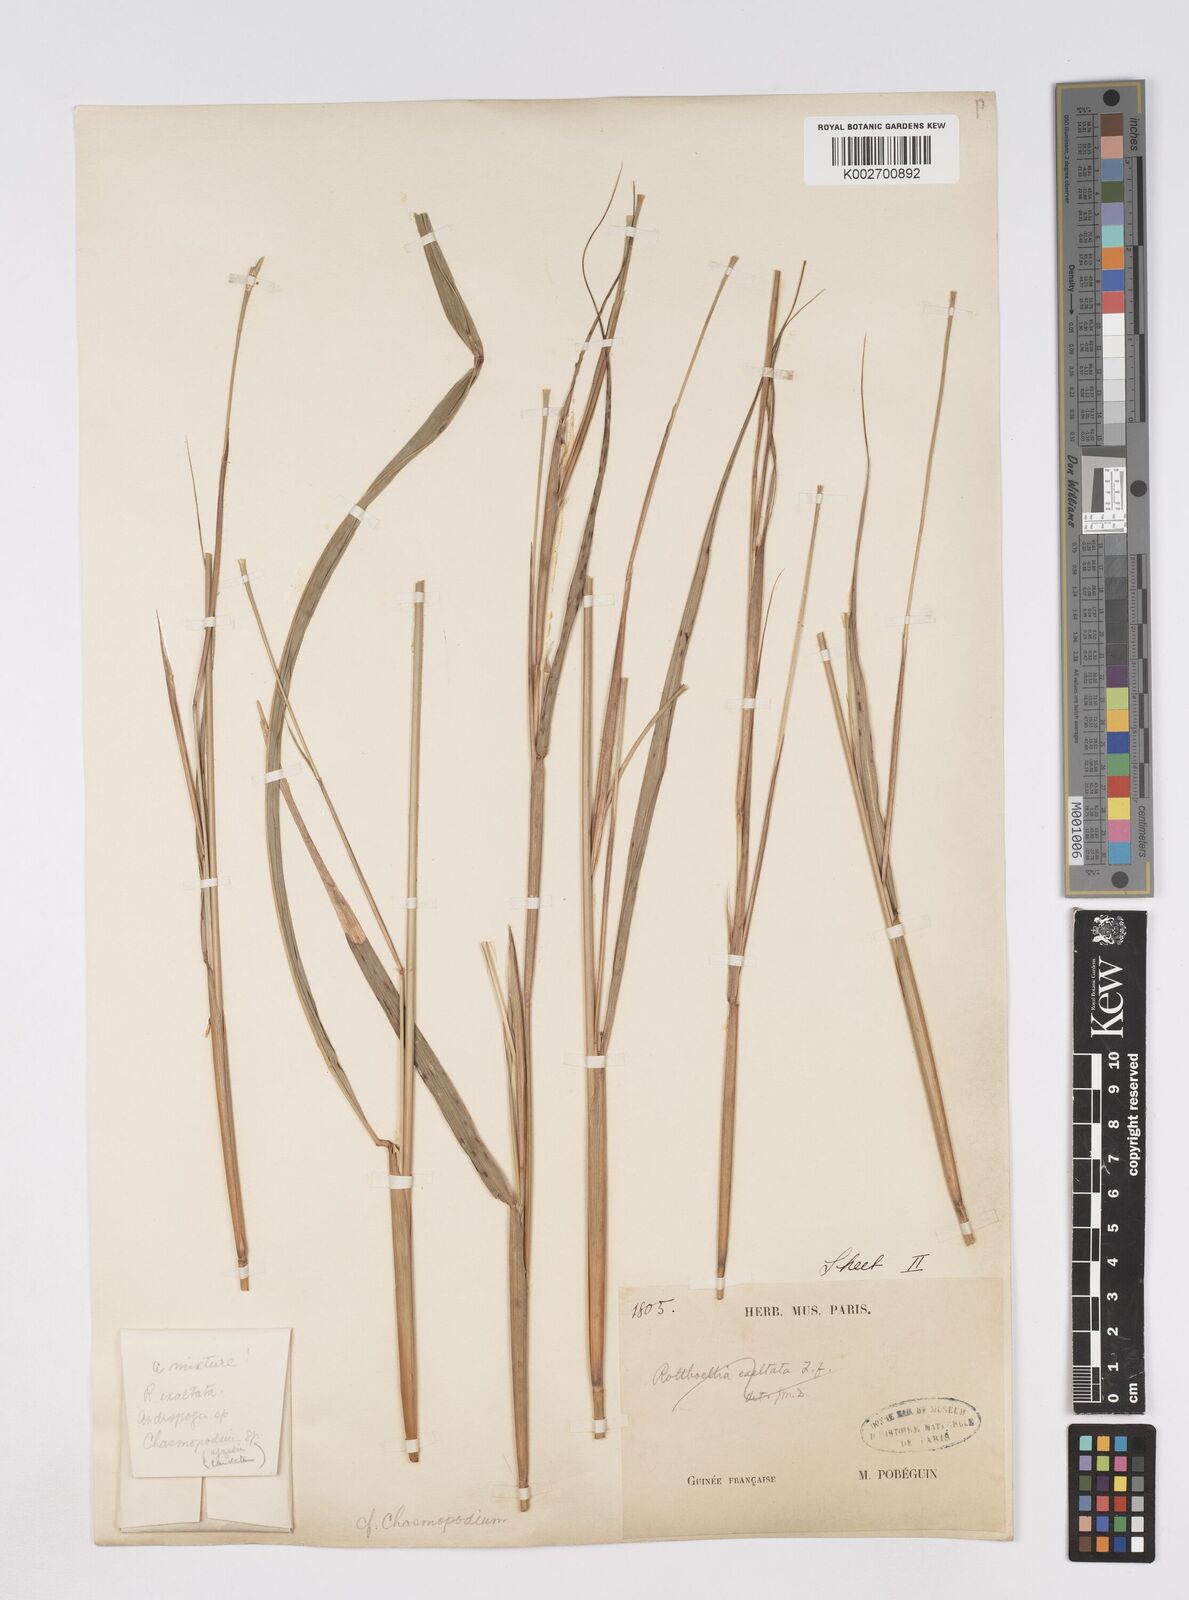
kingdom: Plantae
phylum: Tracheophyta
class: Liliopsida
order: Poales
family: Poaceae
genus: Chasmopodium
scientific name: Chasmopodium caudatum
